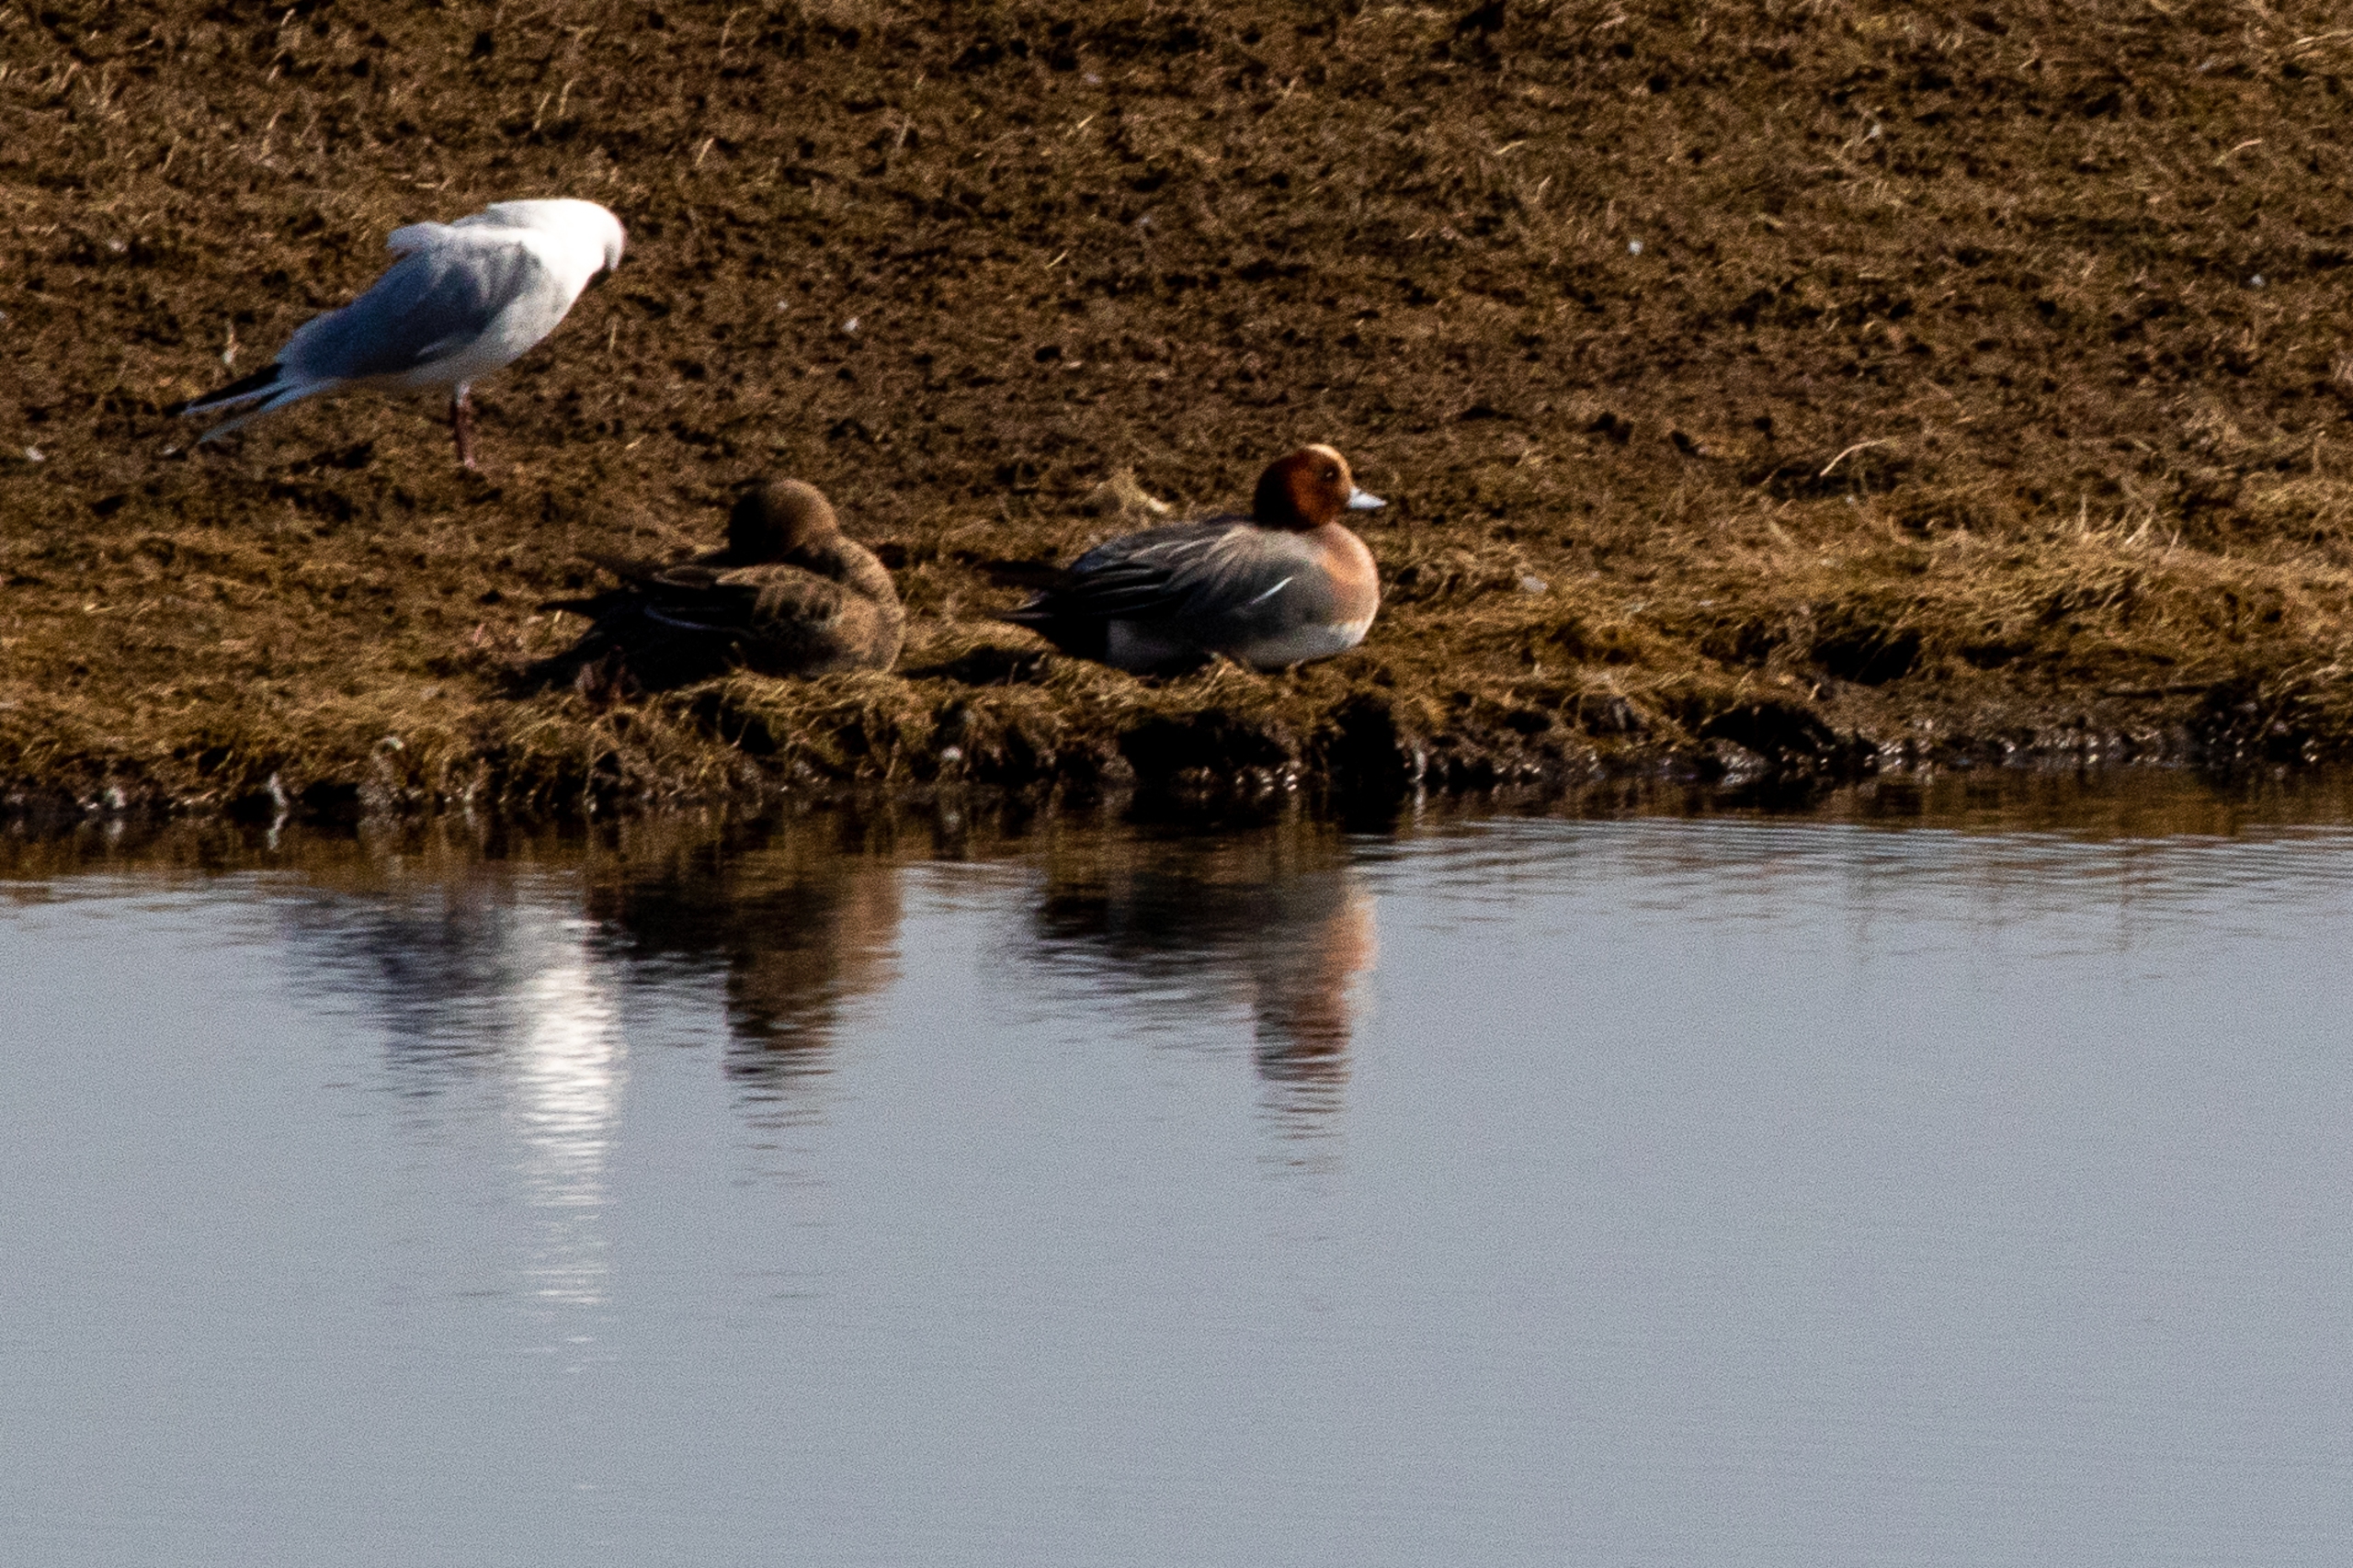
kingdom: Animalia
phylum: Chordata
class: Aves
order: Anseriformes
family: Anatidae
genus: Mareca
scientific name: Mareca penelope
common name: Pibeand
